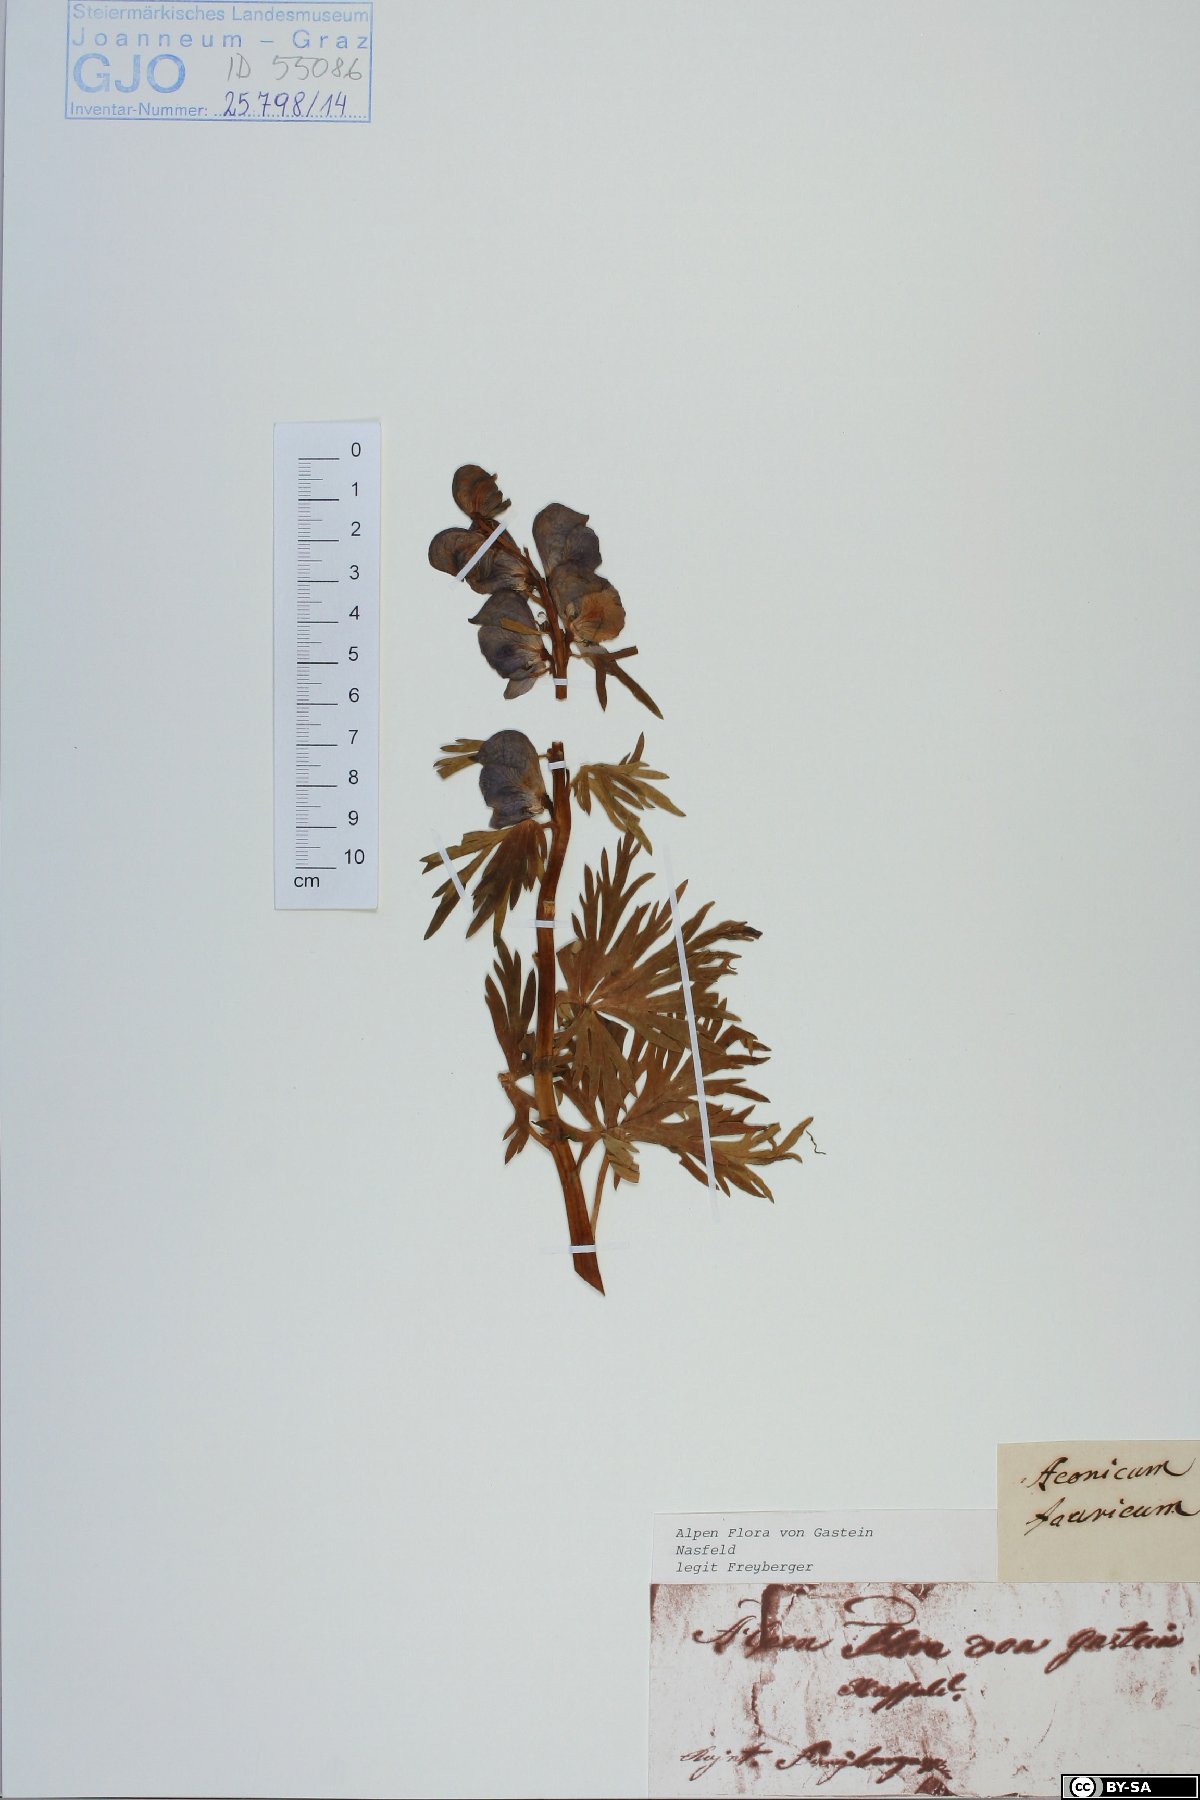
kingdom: Plantae
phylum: Tracheophyta
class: Magnoliopsida
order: Ranunculales
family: Ranunculaceae
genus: Aconitum
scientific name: Aconitum tauricum
